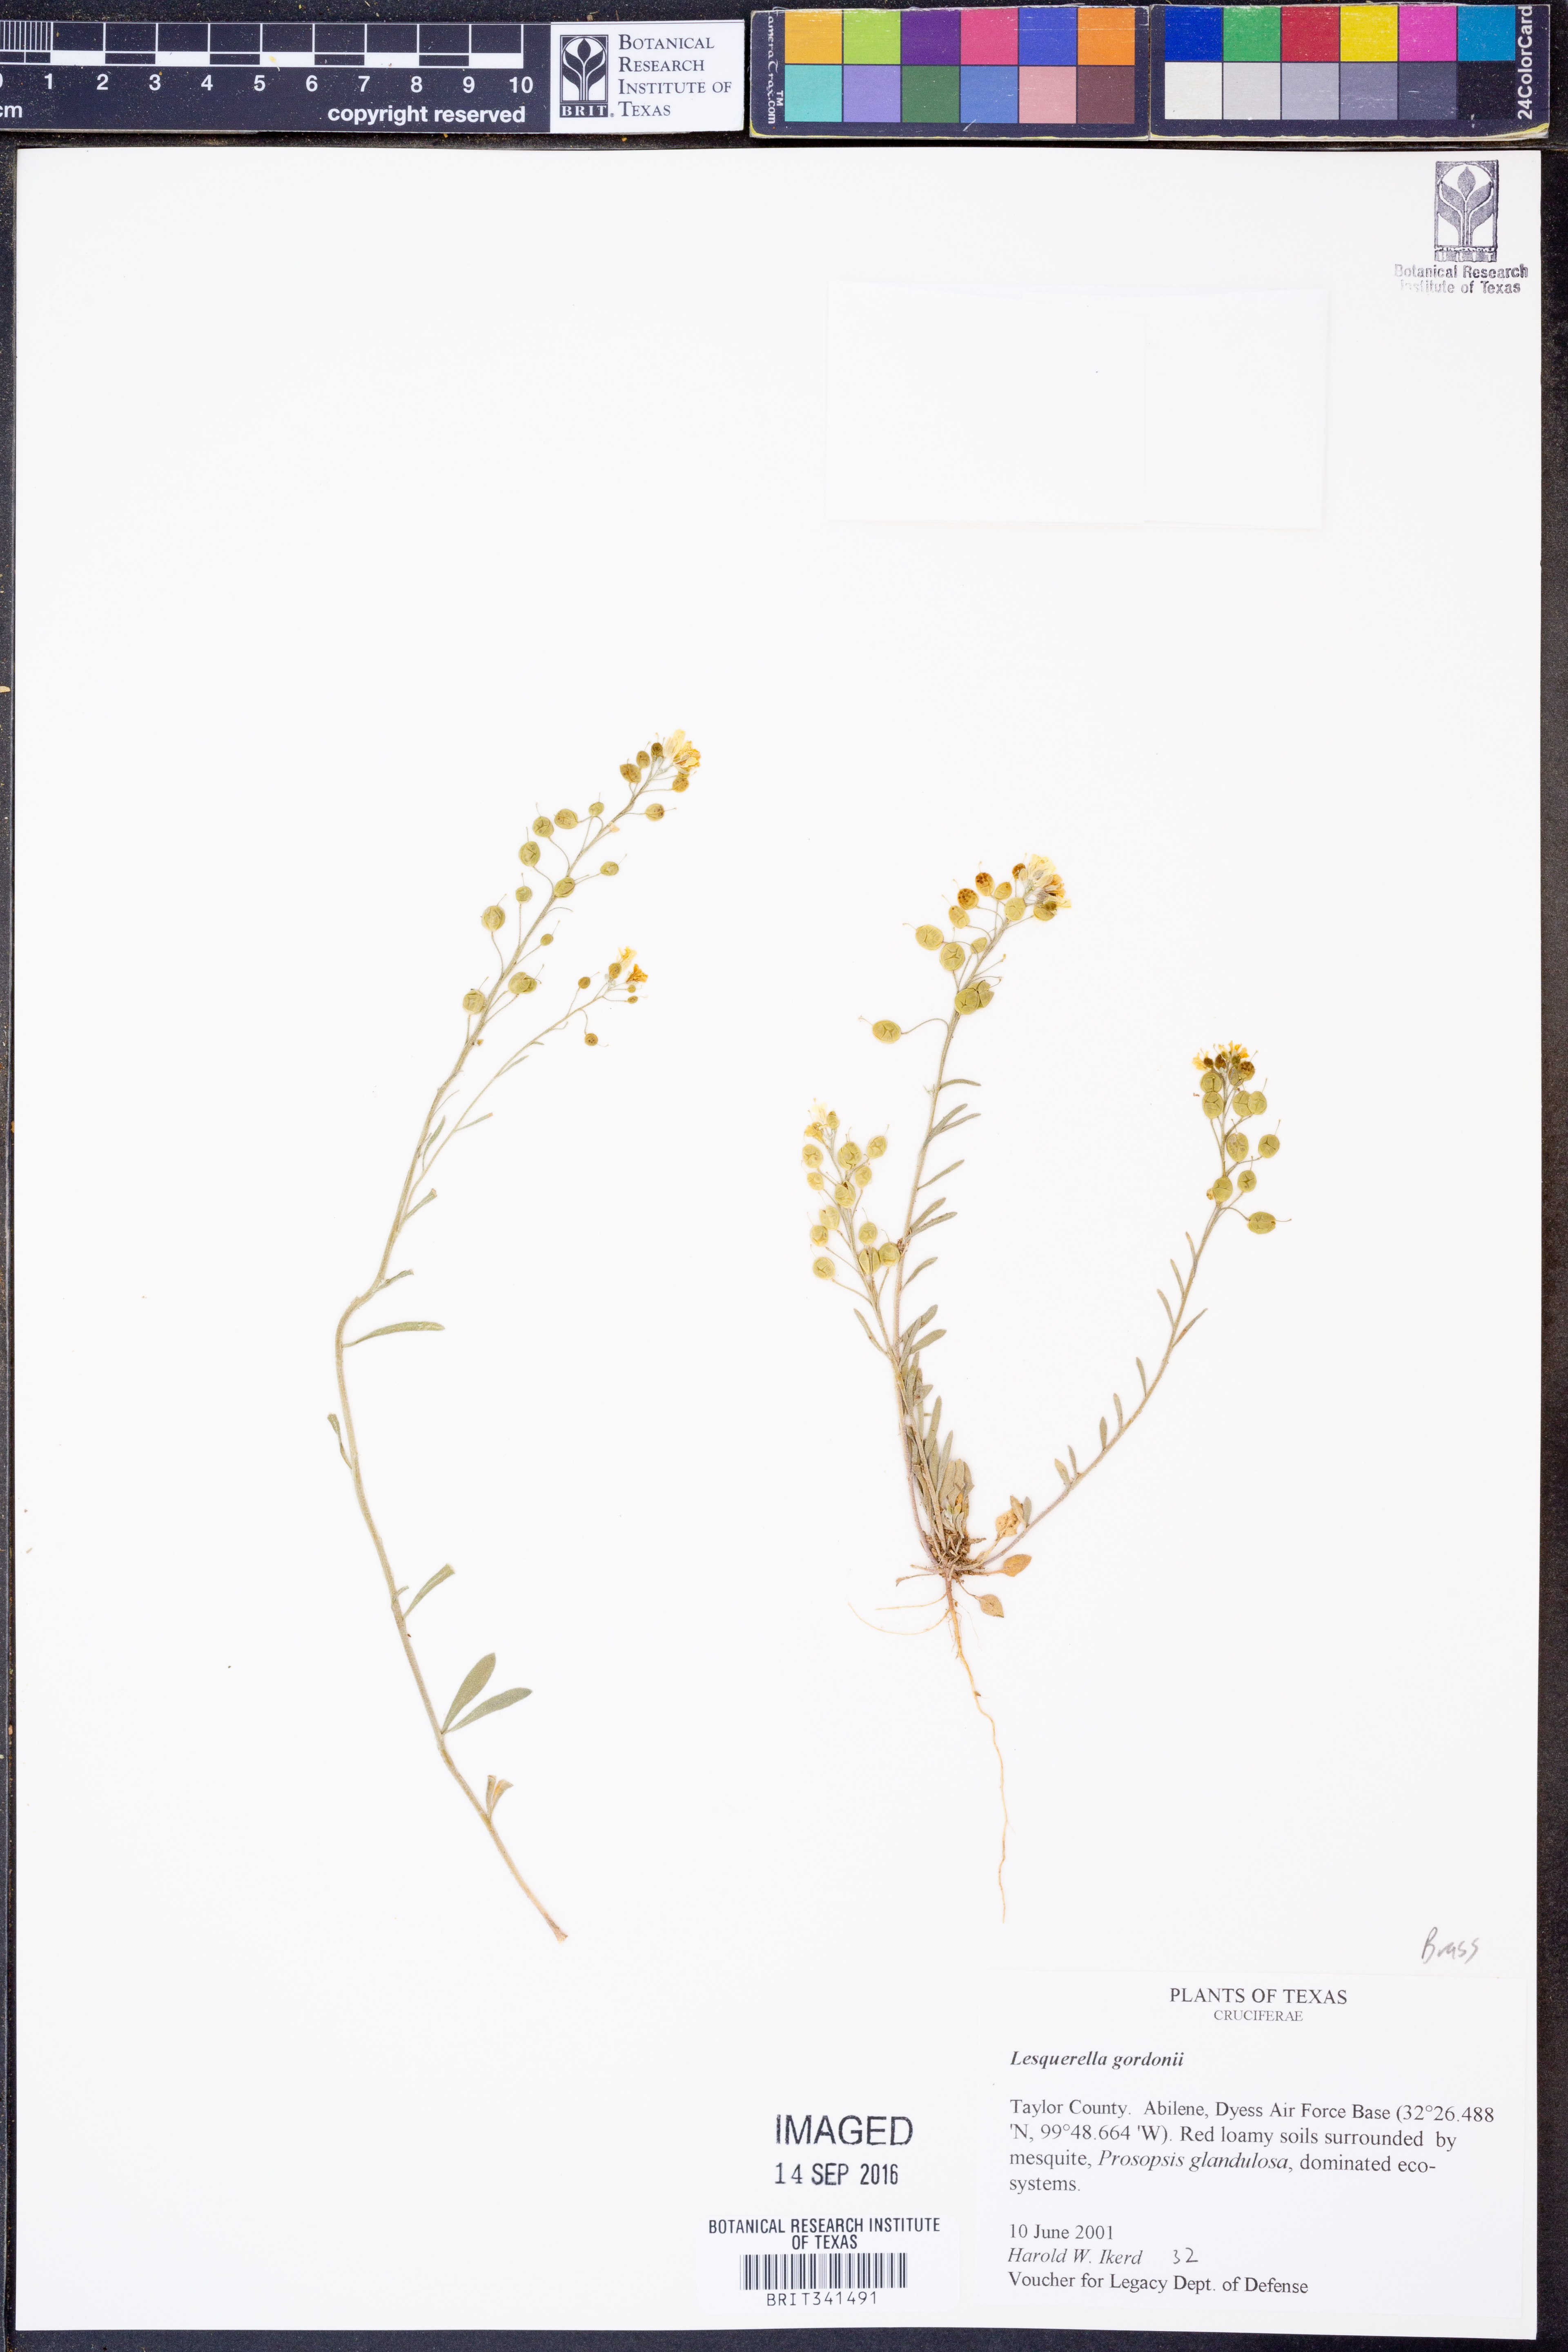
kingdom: Plantae
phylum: Tracheophyta
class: Magnoliopsida
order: Brassicales
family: Brassicaceae
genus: Physaria
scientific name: Physaria gordonii
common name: Gordon's bladderpod
